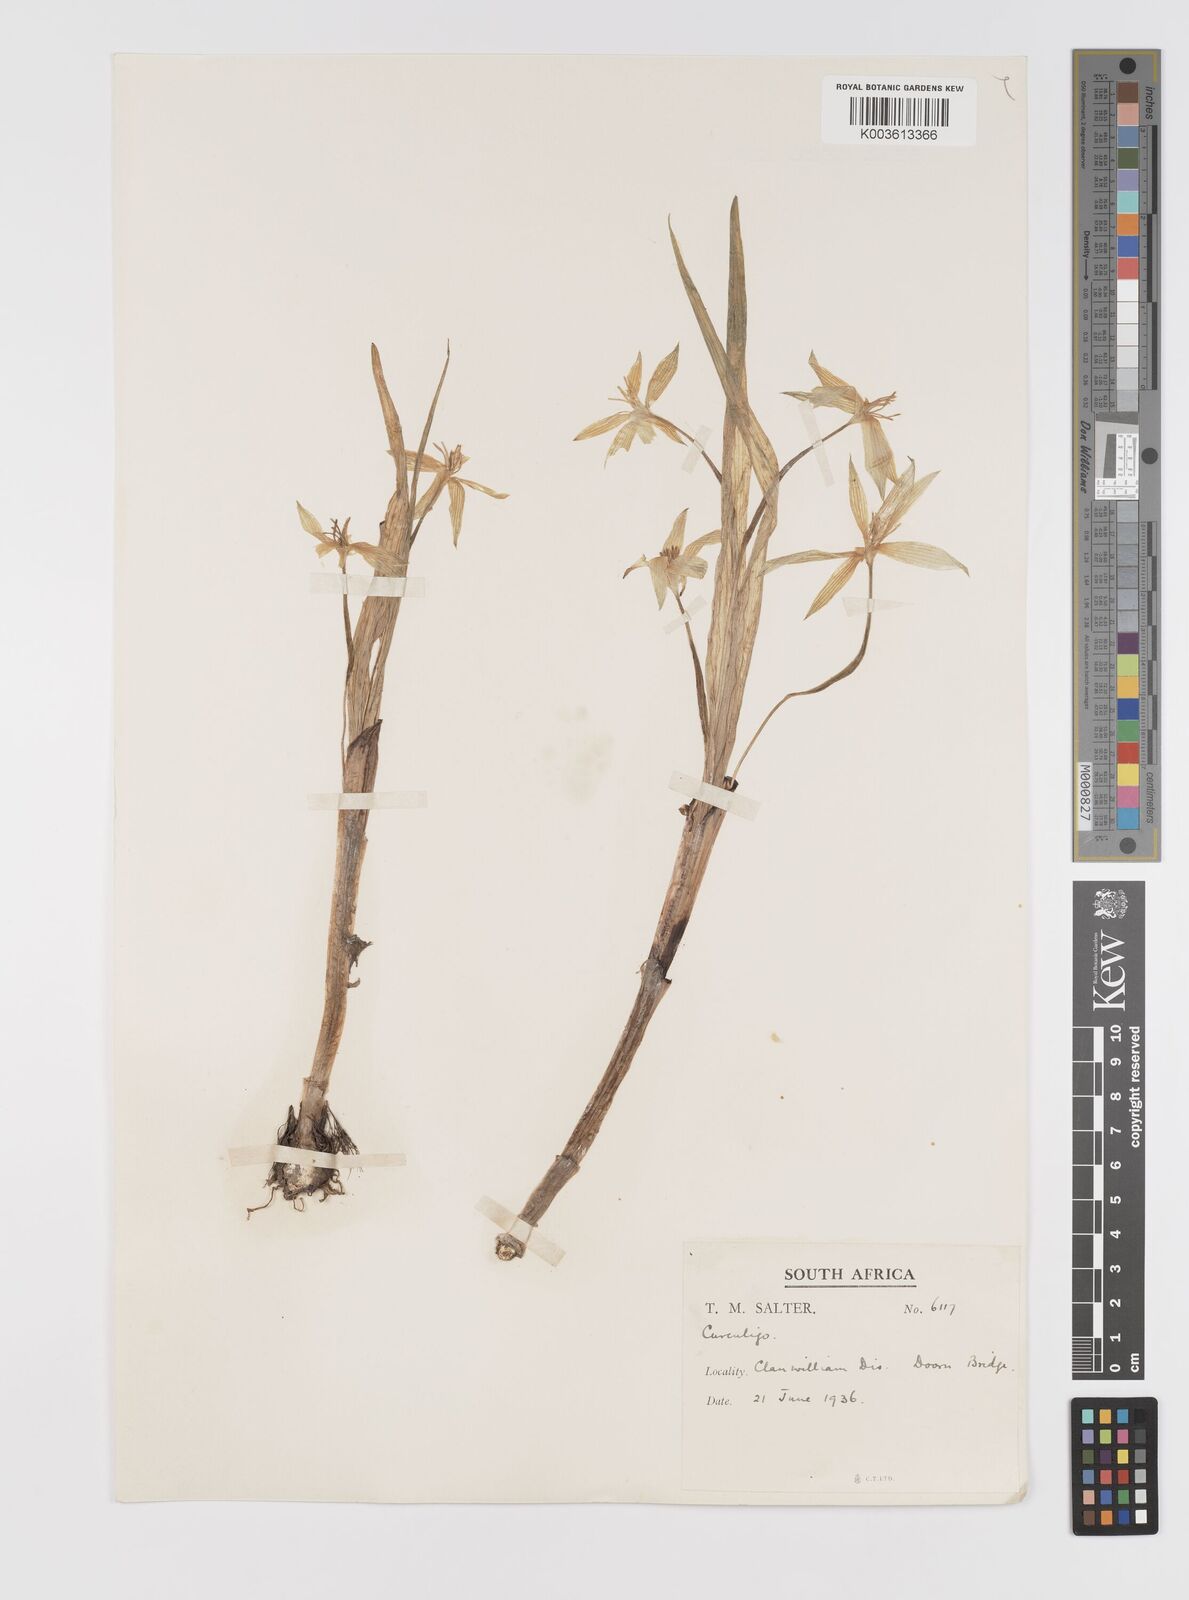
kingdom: Plantae
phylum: Tracheophyta
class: Liliopsida
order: Asparagales
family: Hypoxidaceae
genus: Empodium
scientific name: Empodium veratrifolium
